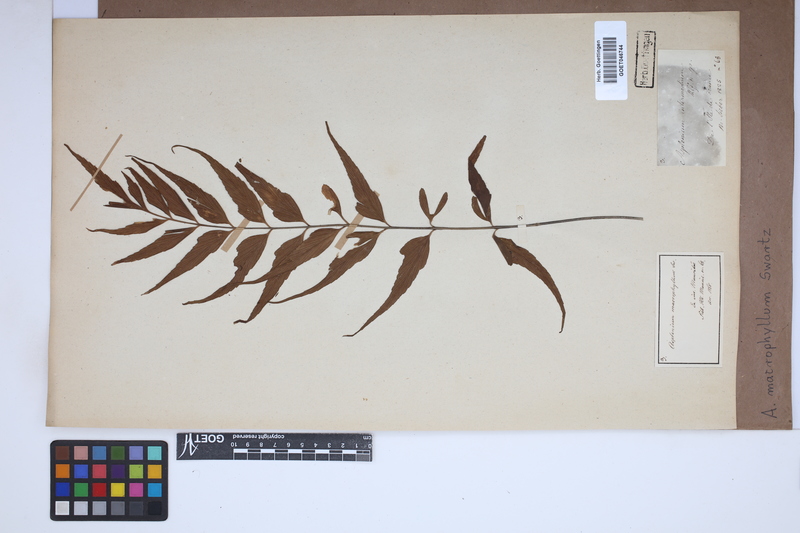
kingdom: Plantae
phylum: Tracheophyta
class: Polypodiopsida
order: Polypodiales
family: Aspleniaceae
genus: Asplenium
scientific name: Asplenium macrophyllum
